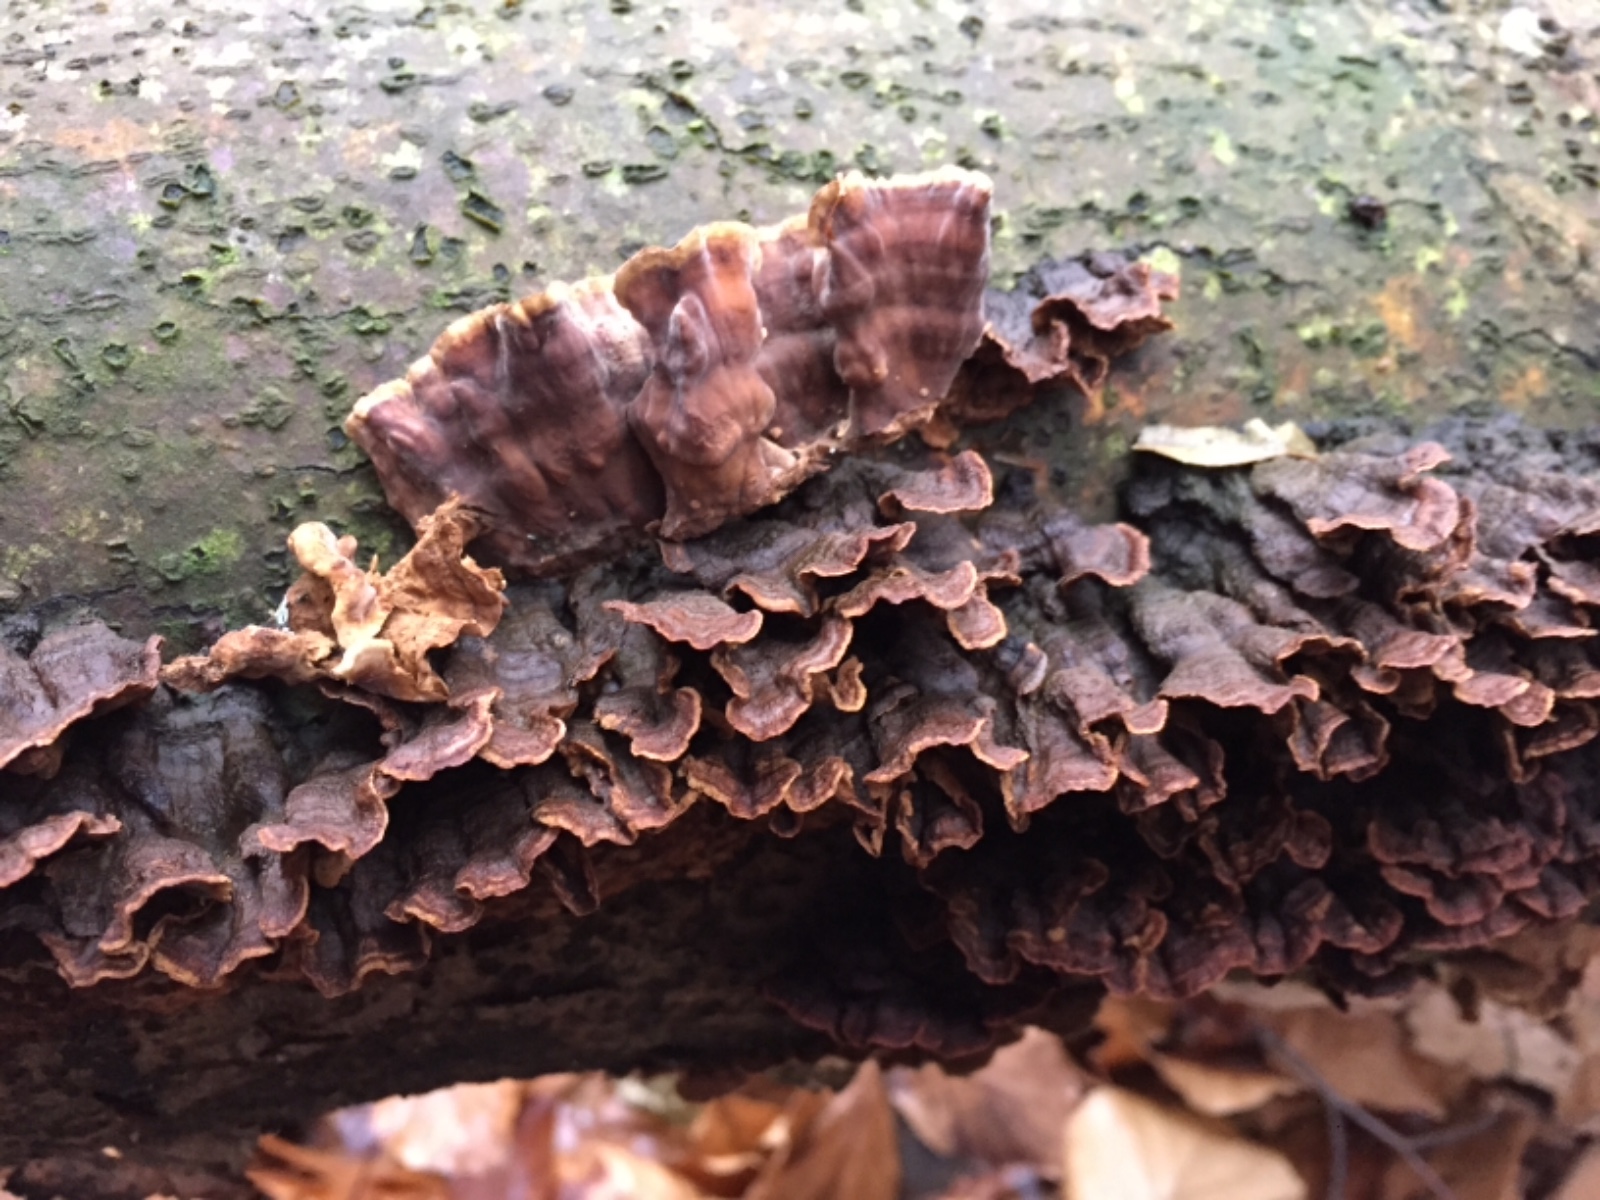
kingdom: Fungi
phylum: Basidiomycota
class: Agaricomycetes
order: Agaricales
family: Cyphellaceae
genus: Chondrostereum
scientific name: Chondrostereum purpureum
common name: purpurlædersvamp
